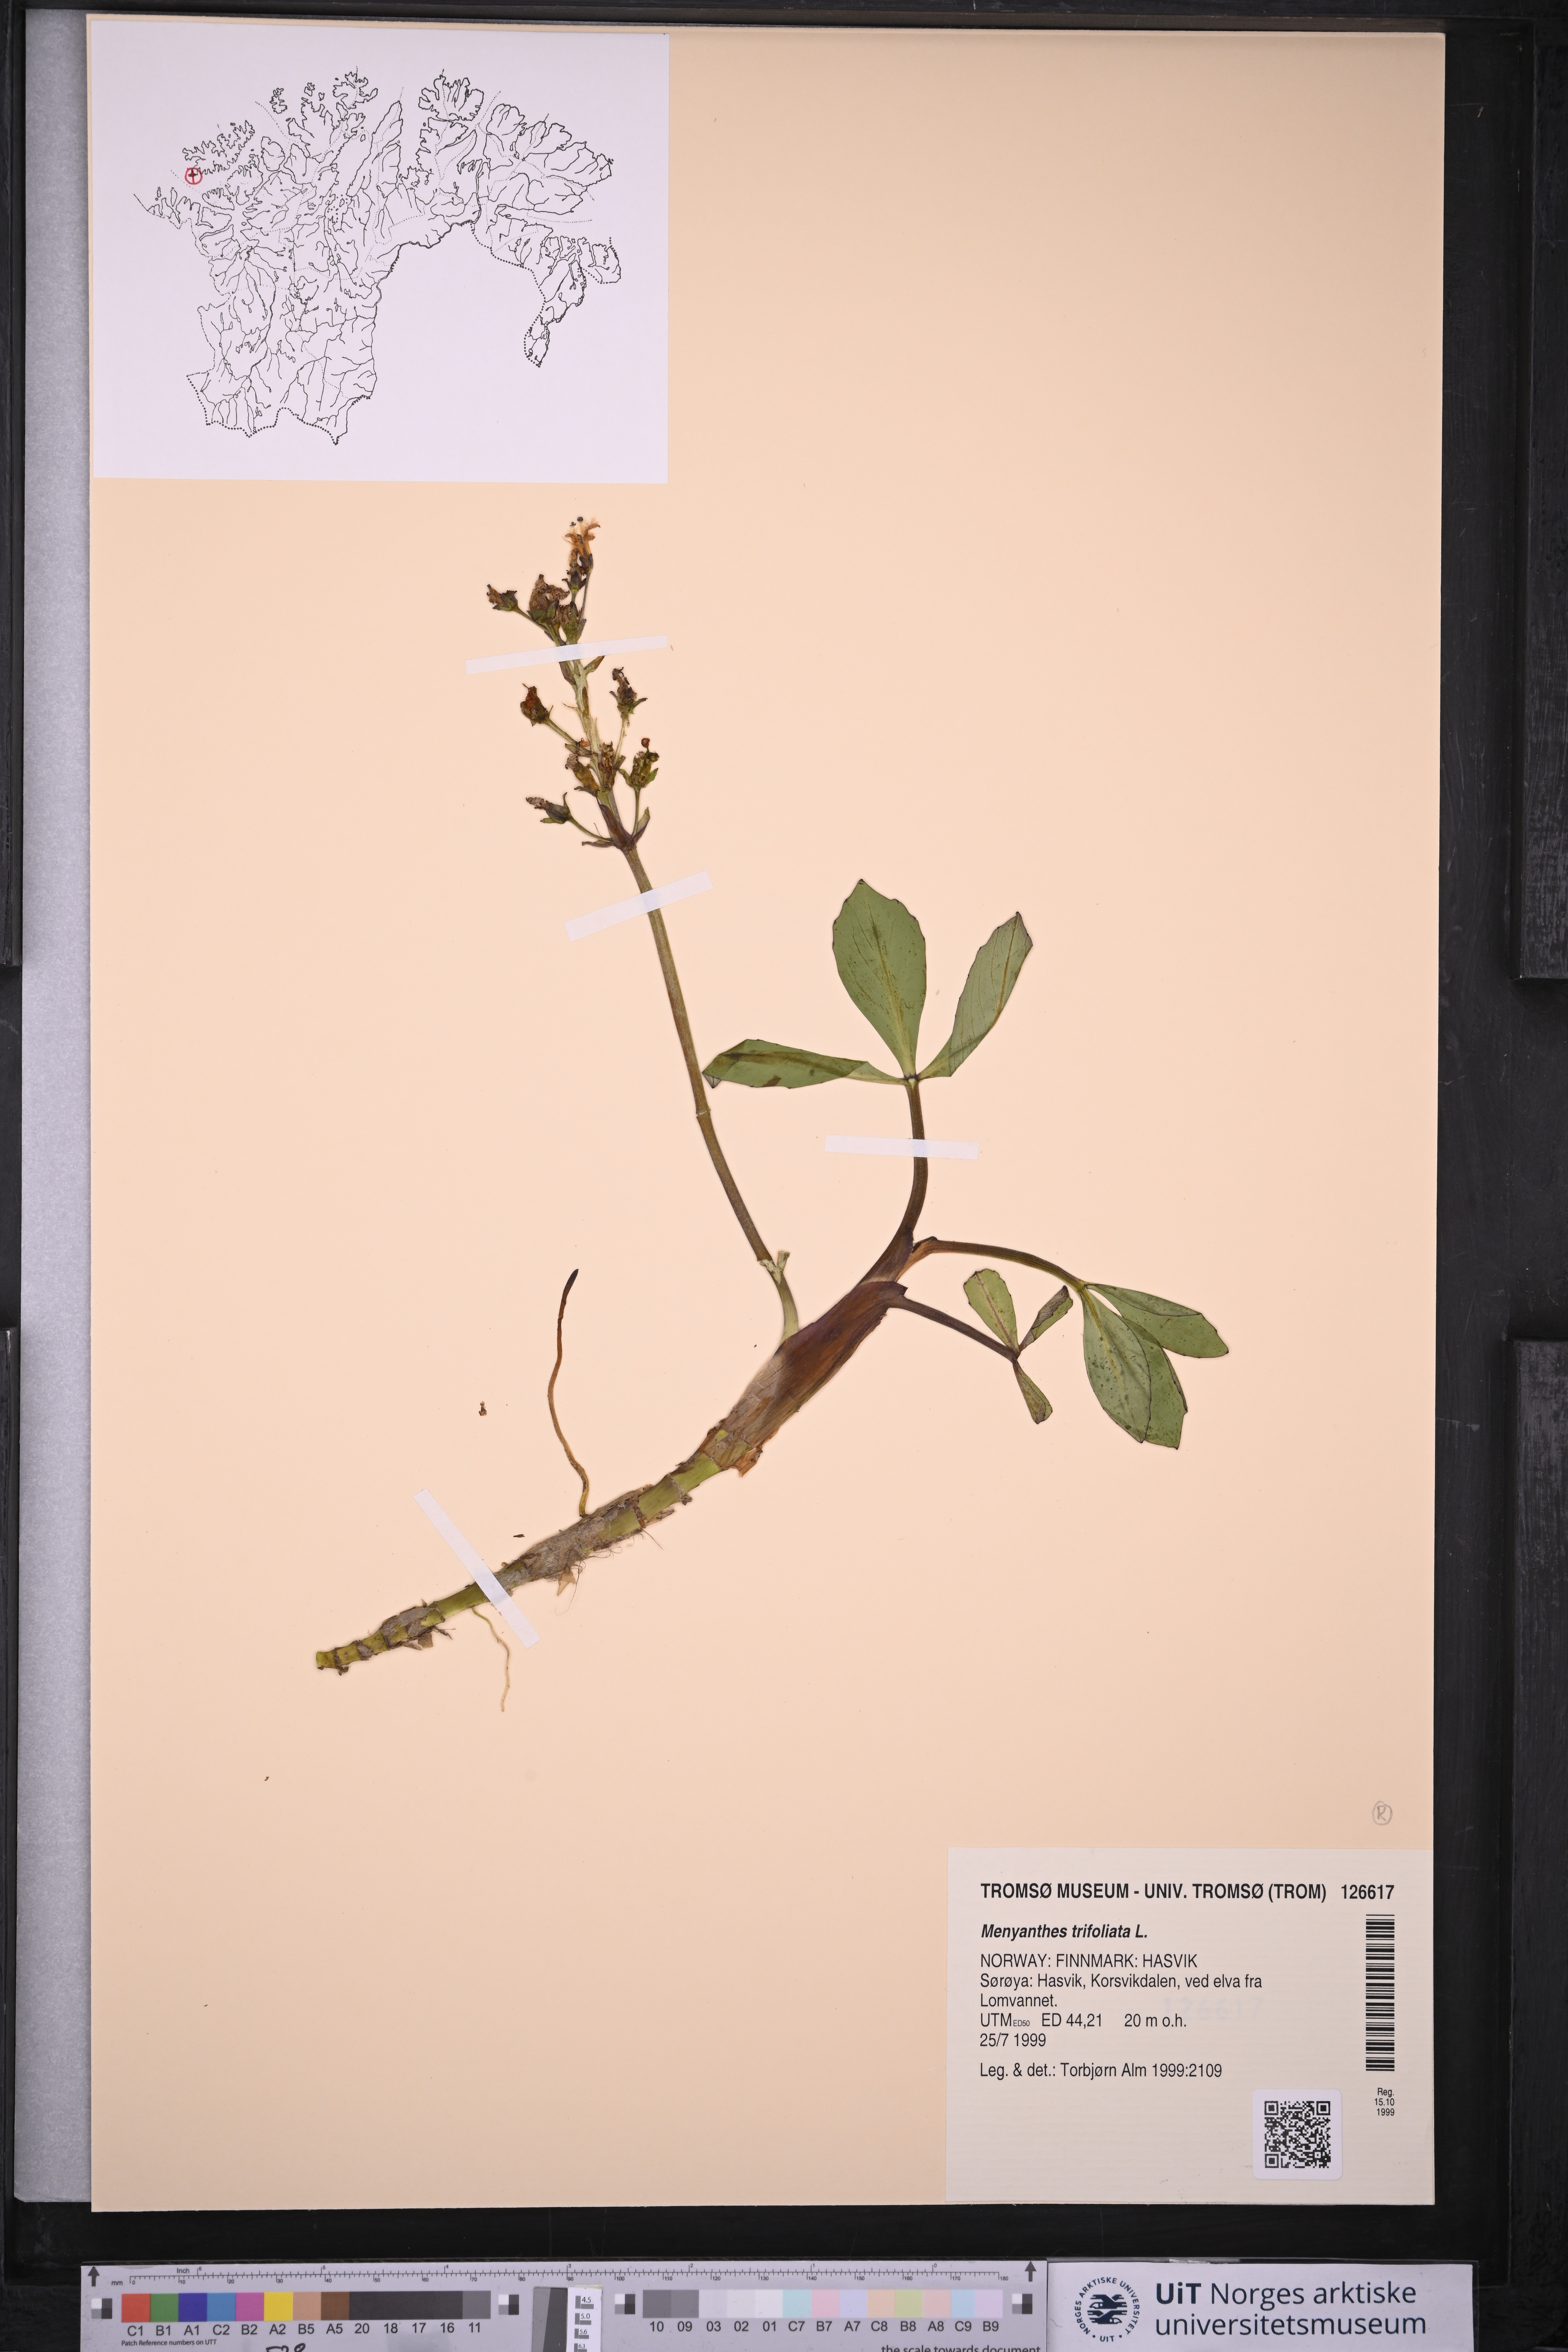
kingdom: Plantae
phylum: Tracheophyta
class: Magnoliopsida
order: Asterales
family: Menyanthaceae
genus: Menyanthes
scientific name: Menyanthes trifoliata
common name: Bogbean
